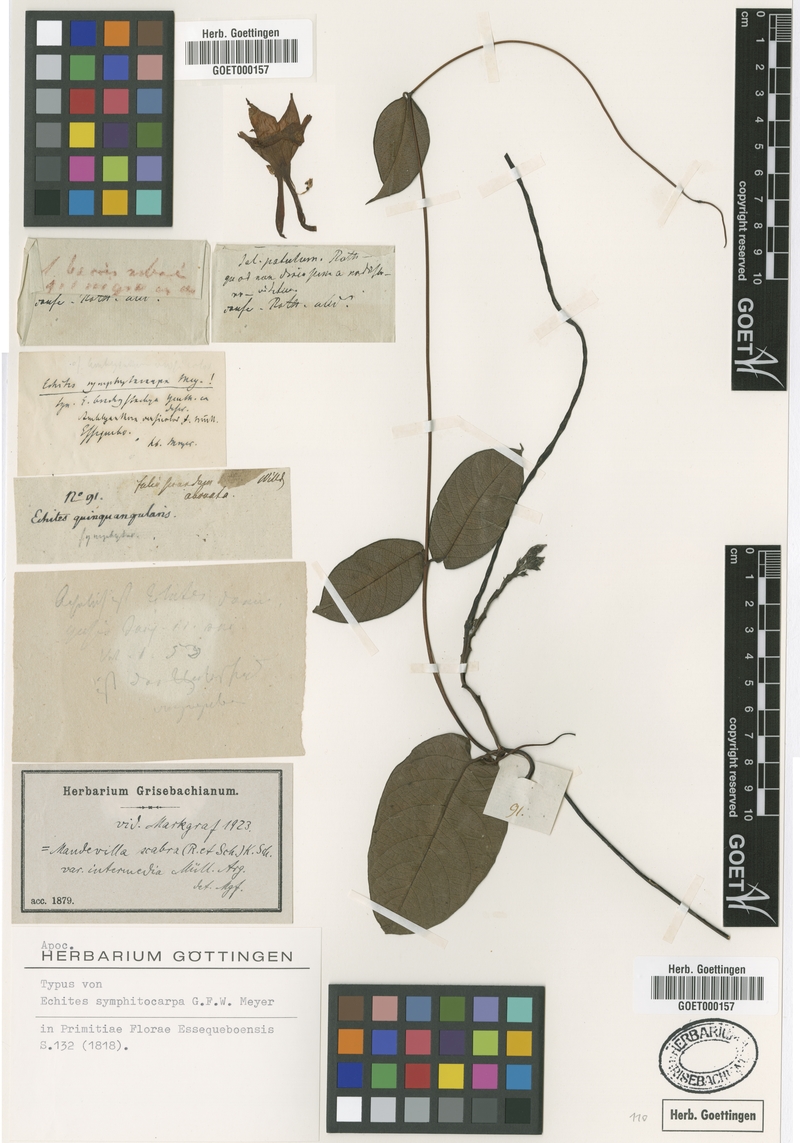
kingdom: Plantae
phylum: Tracheophyta
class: Magnoliopsida
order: Gentianales
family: Apocynaceae
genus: Mandevilla
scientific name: Mandevilla symphytocarpa
